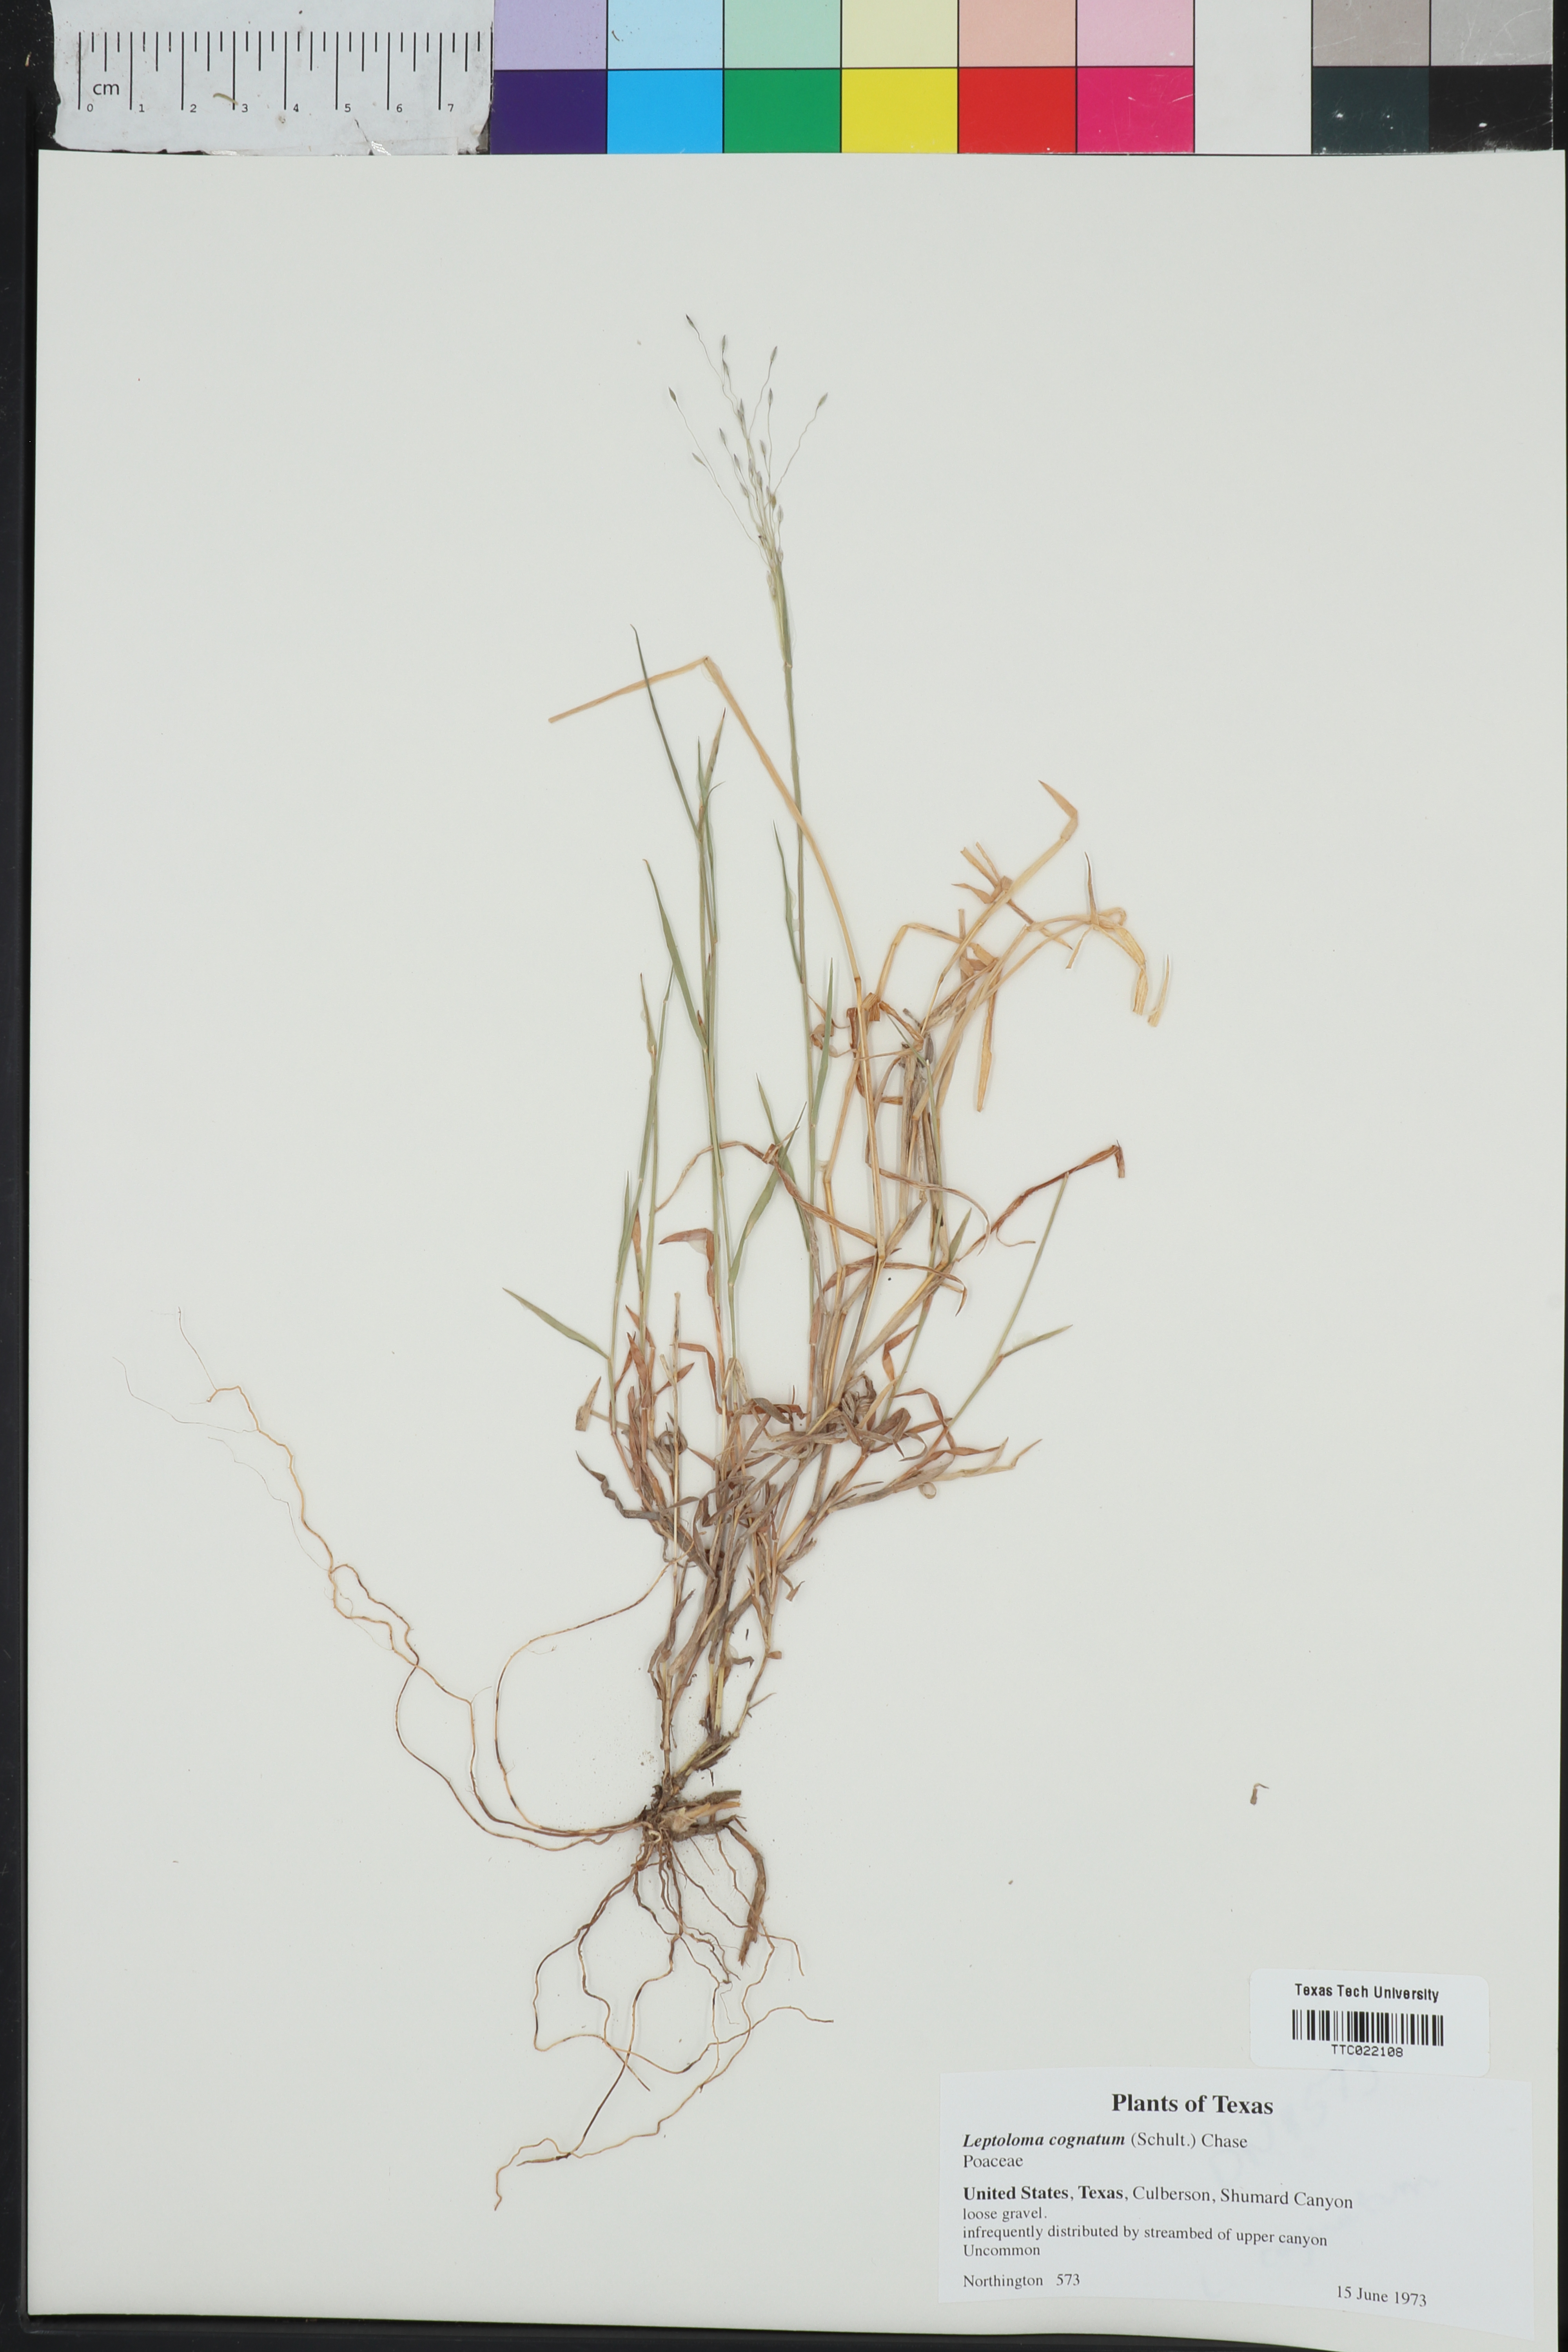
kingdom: Plantae
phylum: Tracheophyta
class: Liliopsida
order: Poales
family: Poaceae
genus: Digitaria
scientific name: Digitaria cognata
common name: Fall witchgrass
